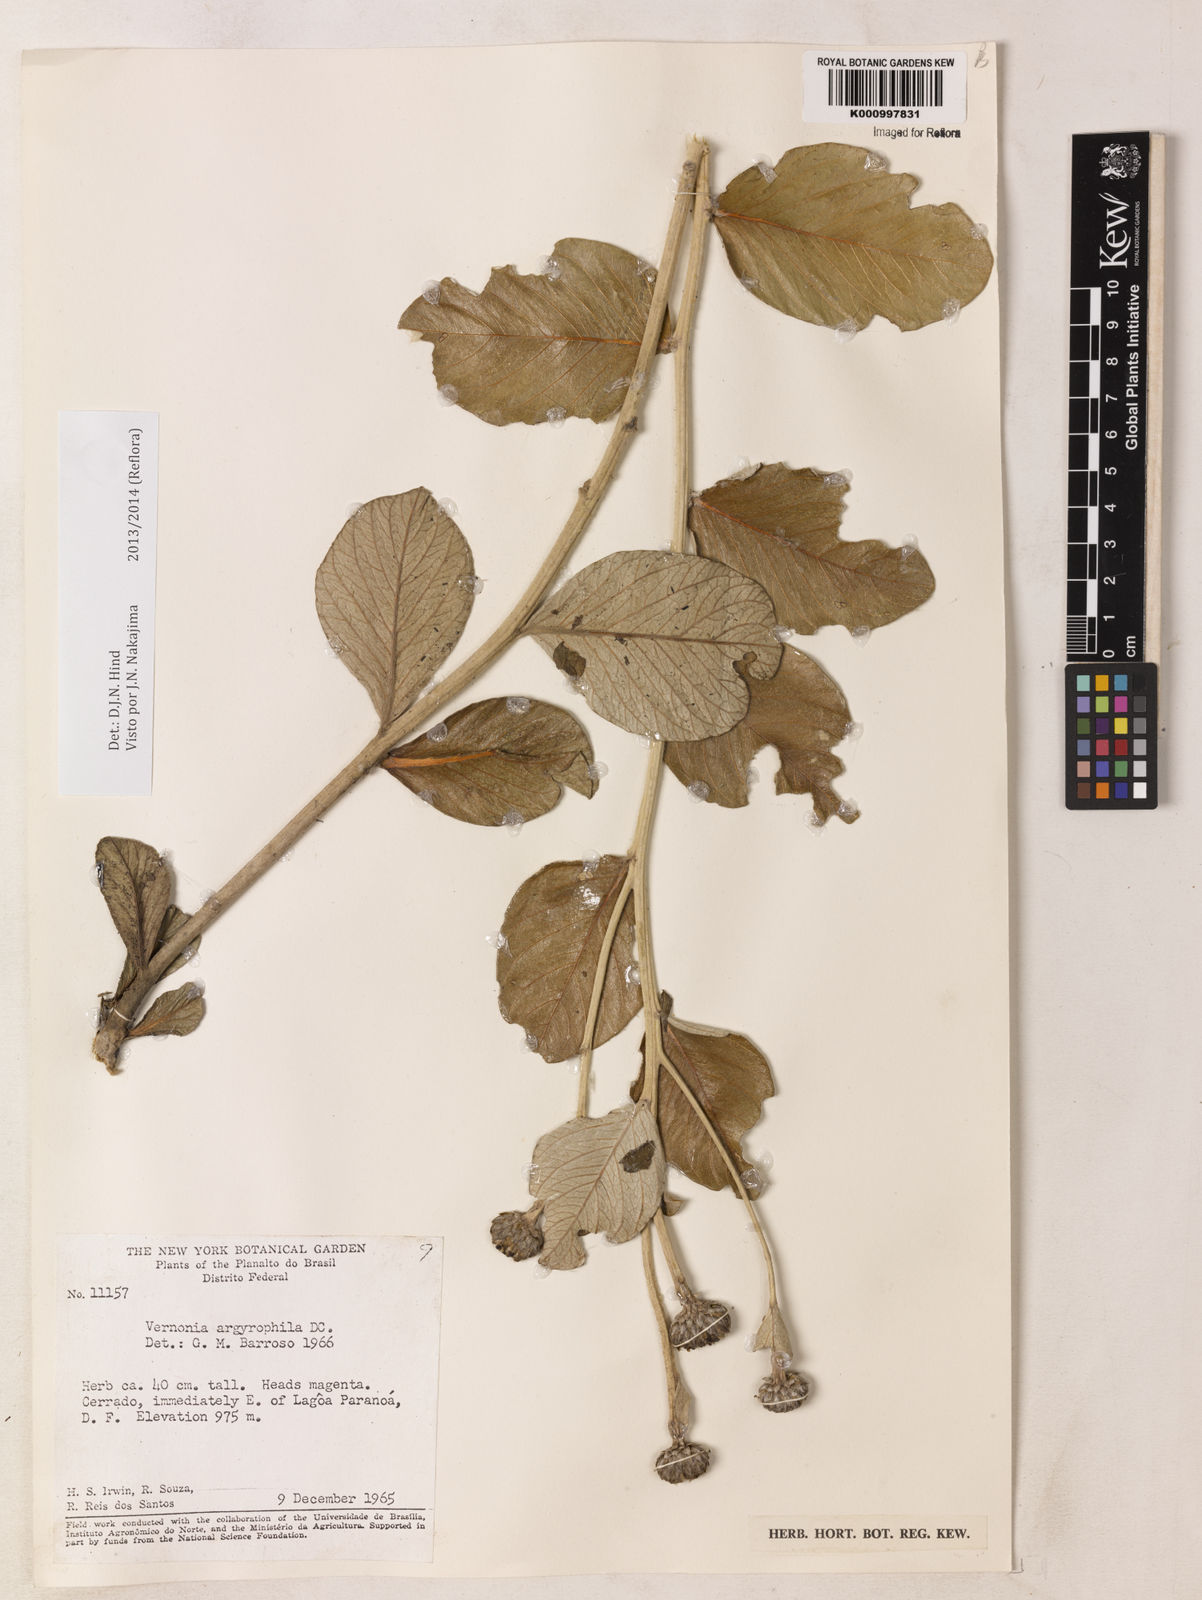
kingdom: Plantae
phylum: Tracheophyta
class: Magnoliopsida
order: Asterales
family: Asteraceae
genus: Lessingianthus
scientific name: Lessingianthus argyrophyllus
